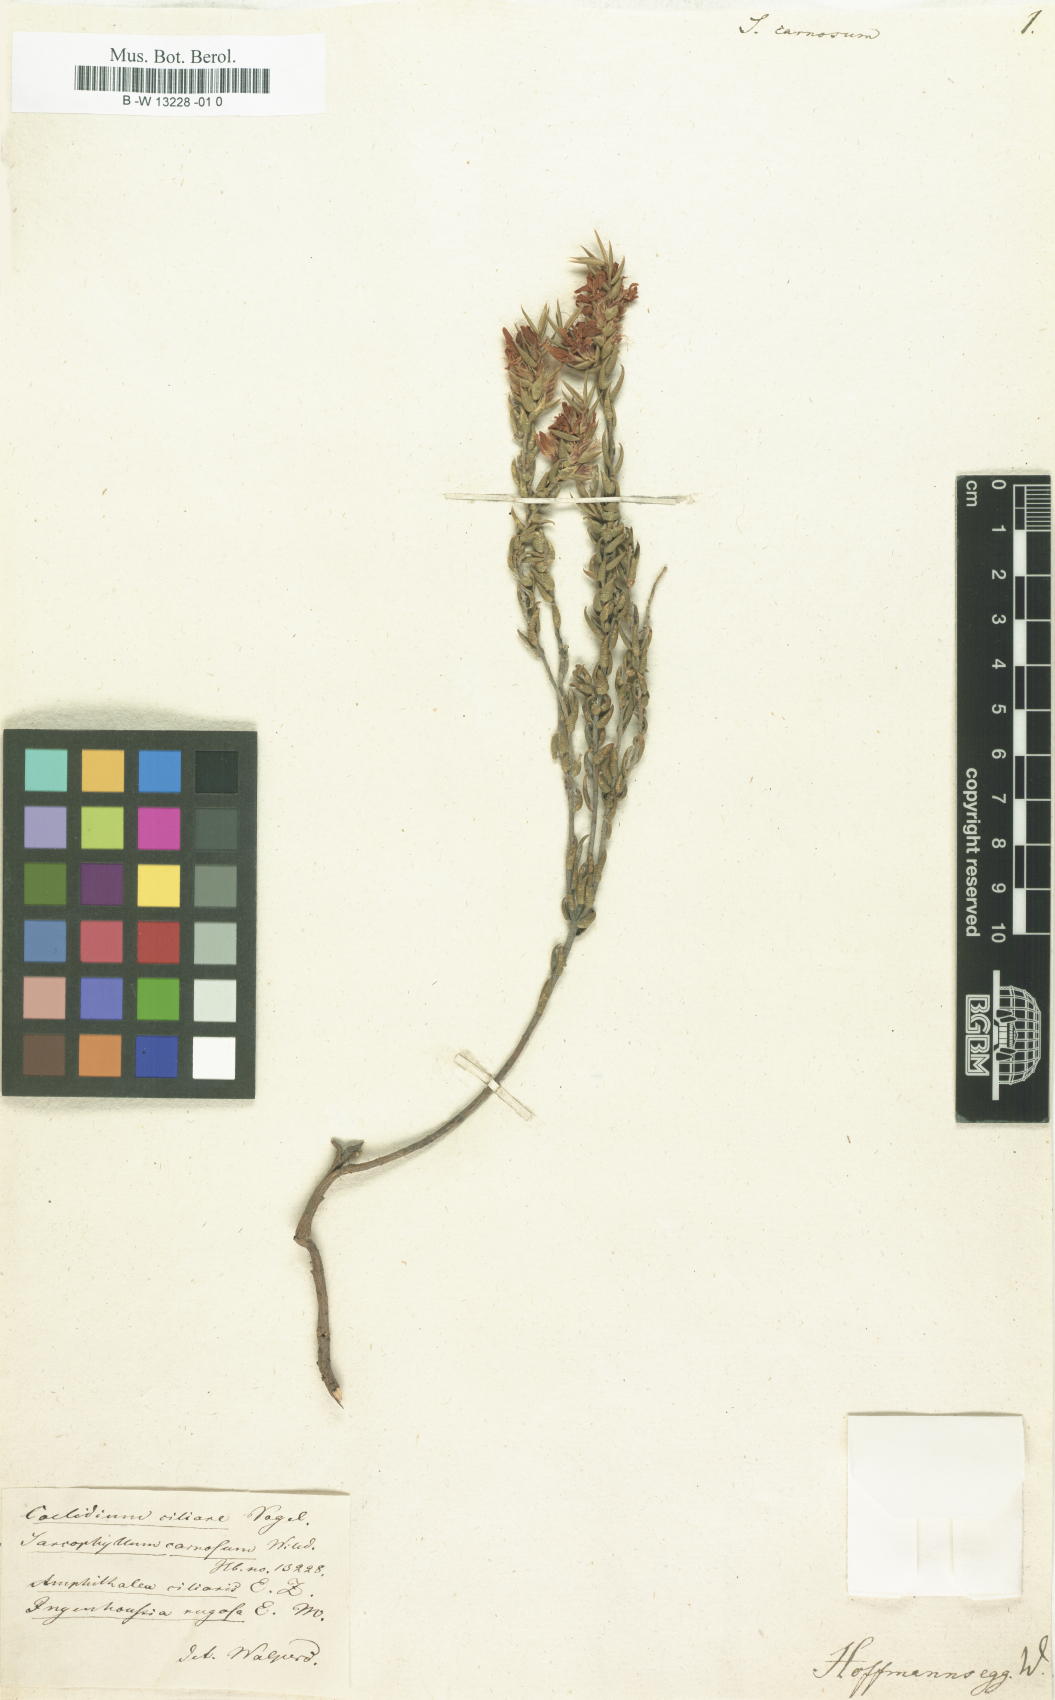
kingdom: Plantae
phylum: Tracheophyta
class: Magnoliopsida
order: Fabales
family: Fabaceae
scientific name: Fabaceae
